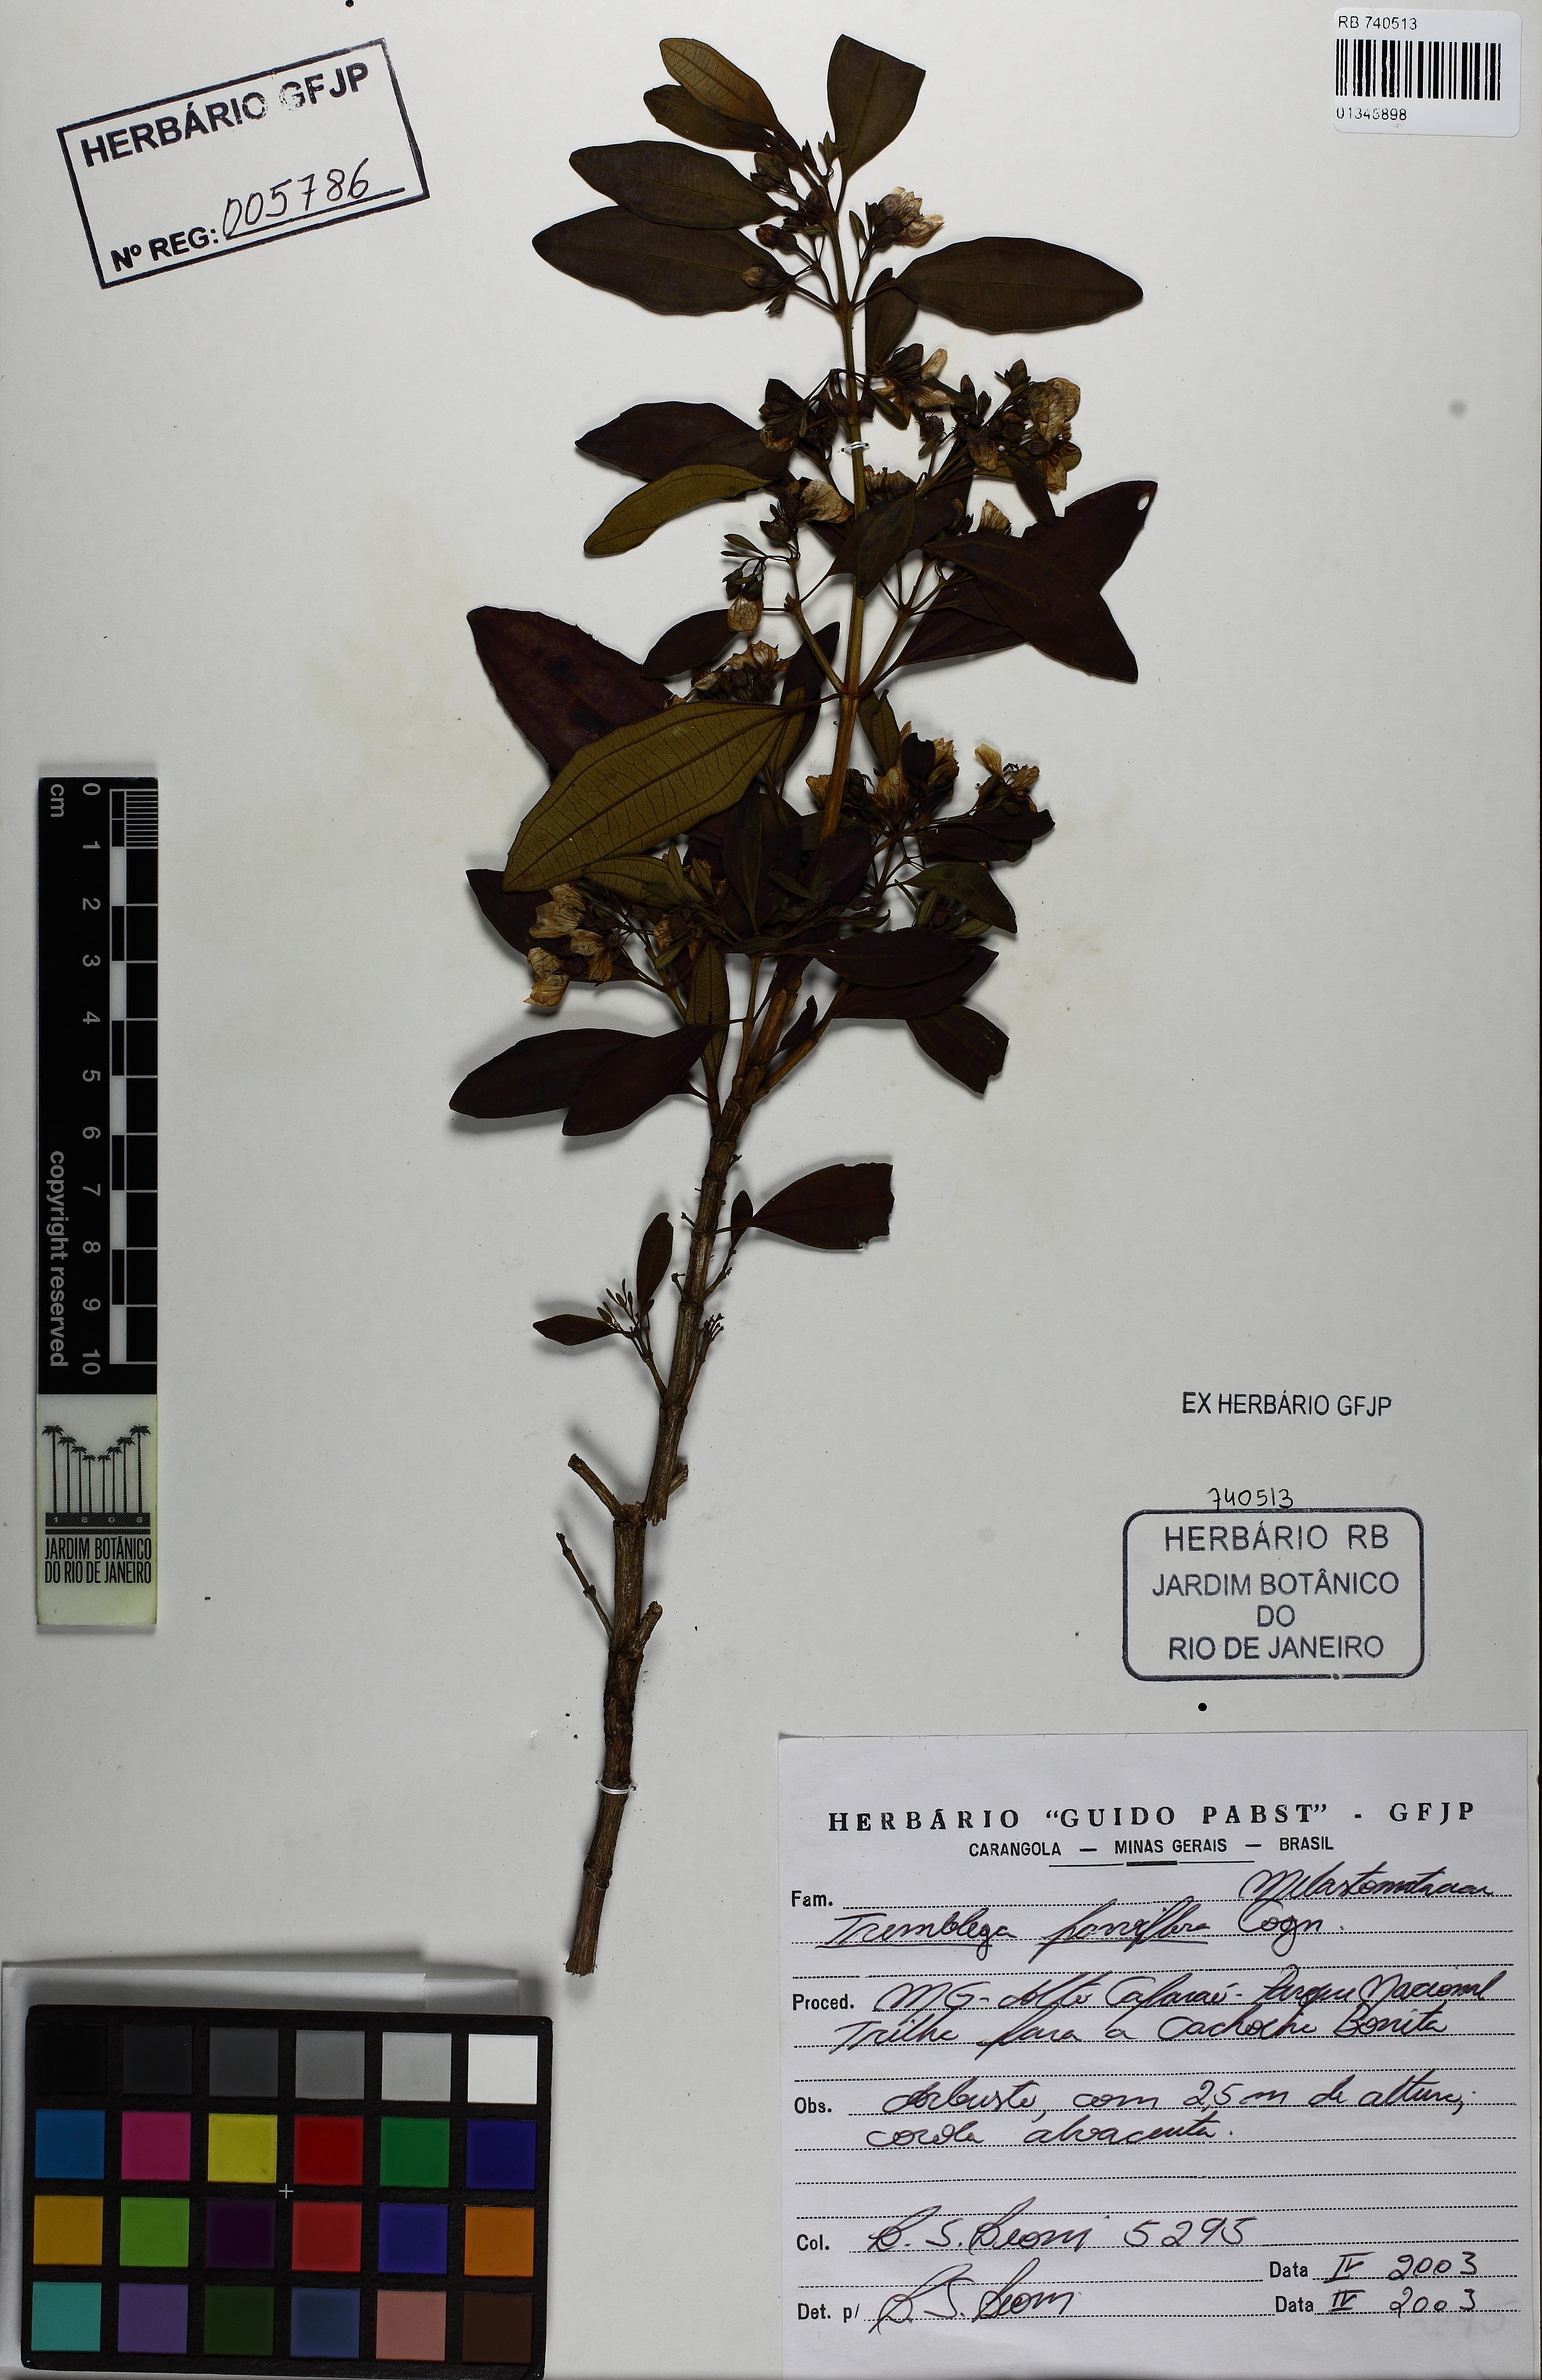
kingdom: Plantae
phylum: Tracheophyta
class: Magnoliopsida
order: Myrtales
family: Melastomataceae
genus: Microlicia
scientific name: Microlicia parviflora
